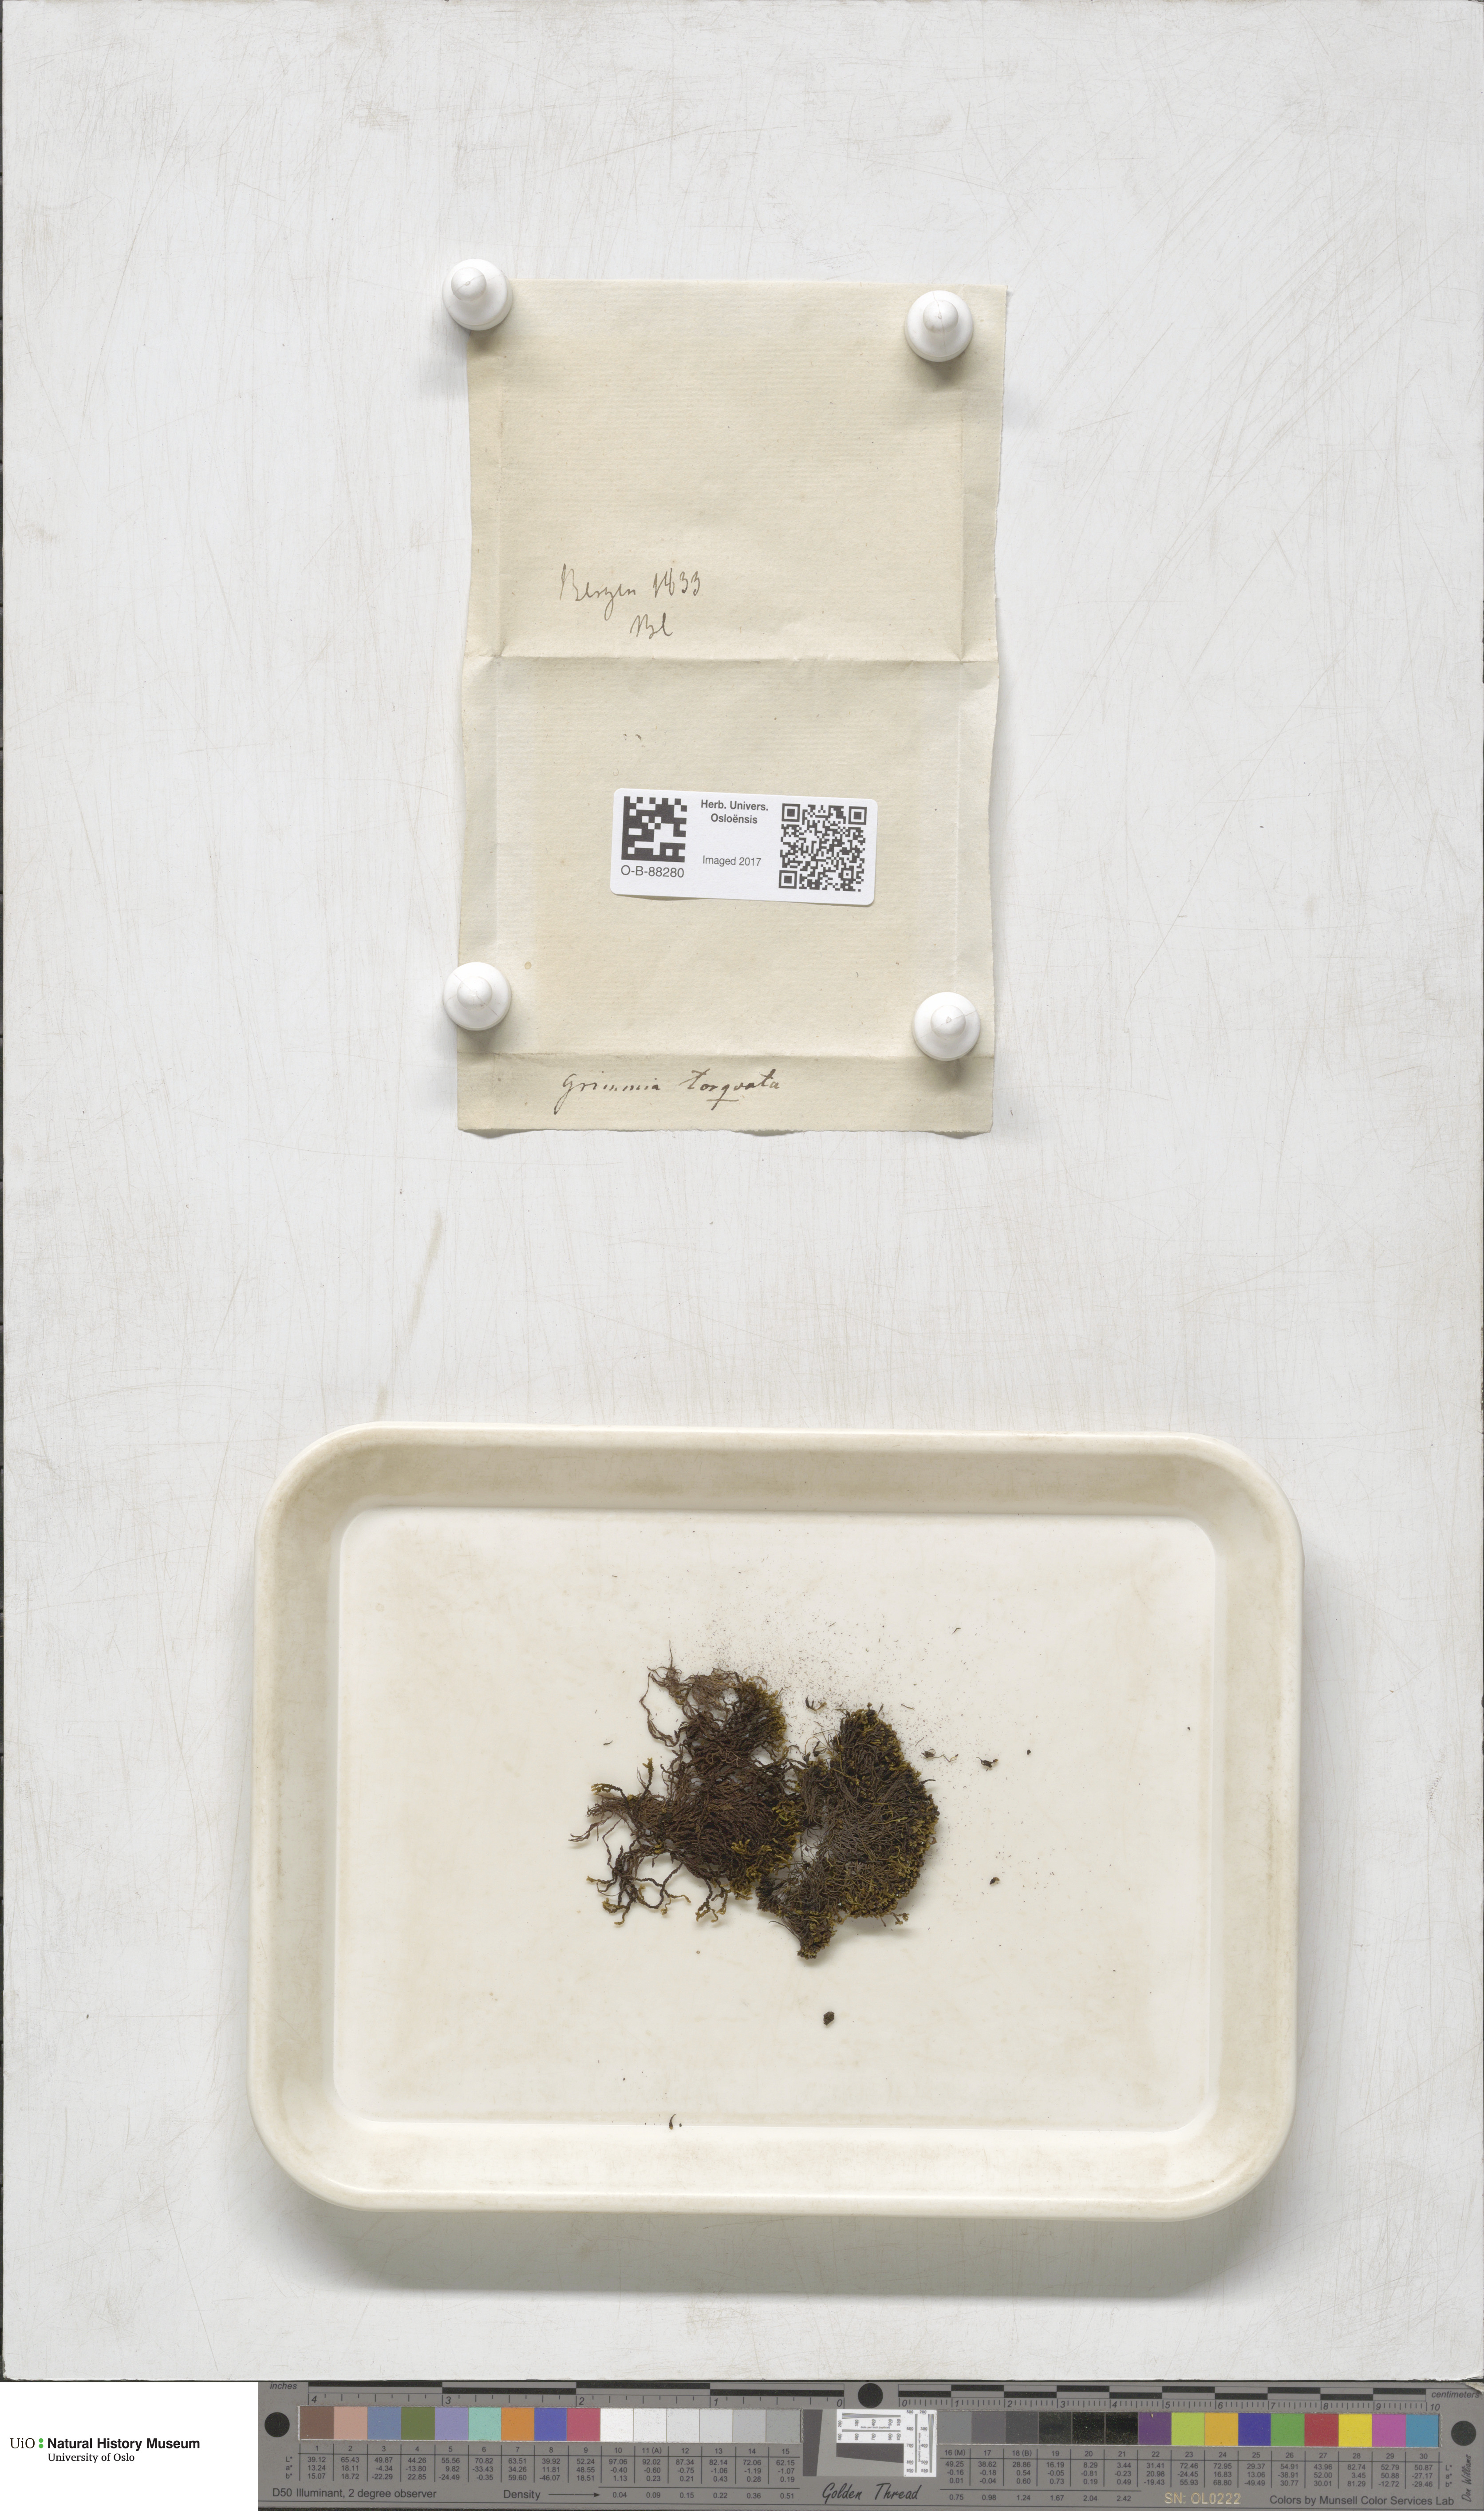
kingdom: Plantae
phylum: Bryophyta
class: Bryopsida
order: Grimmiales
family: Grimmiaceae
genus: Grimmia
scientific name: Grimmia torquata
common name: Twisted grimmia
